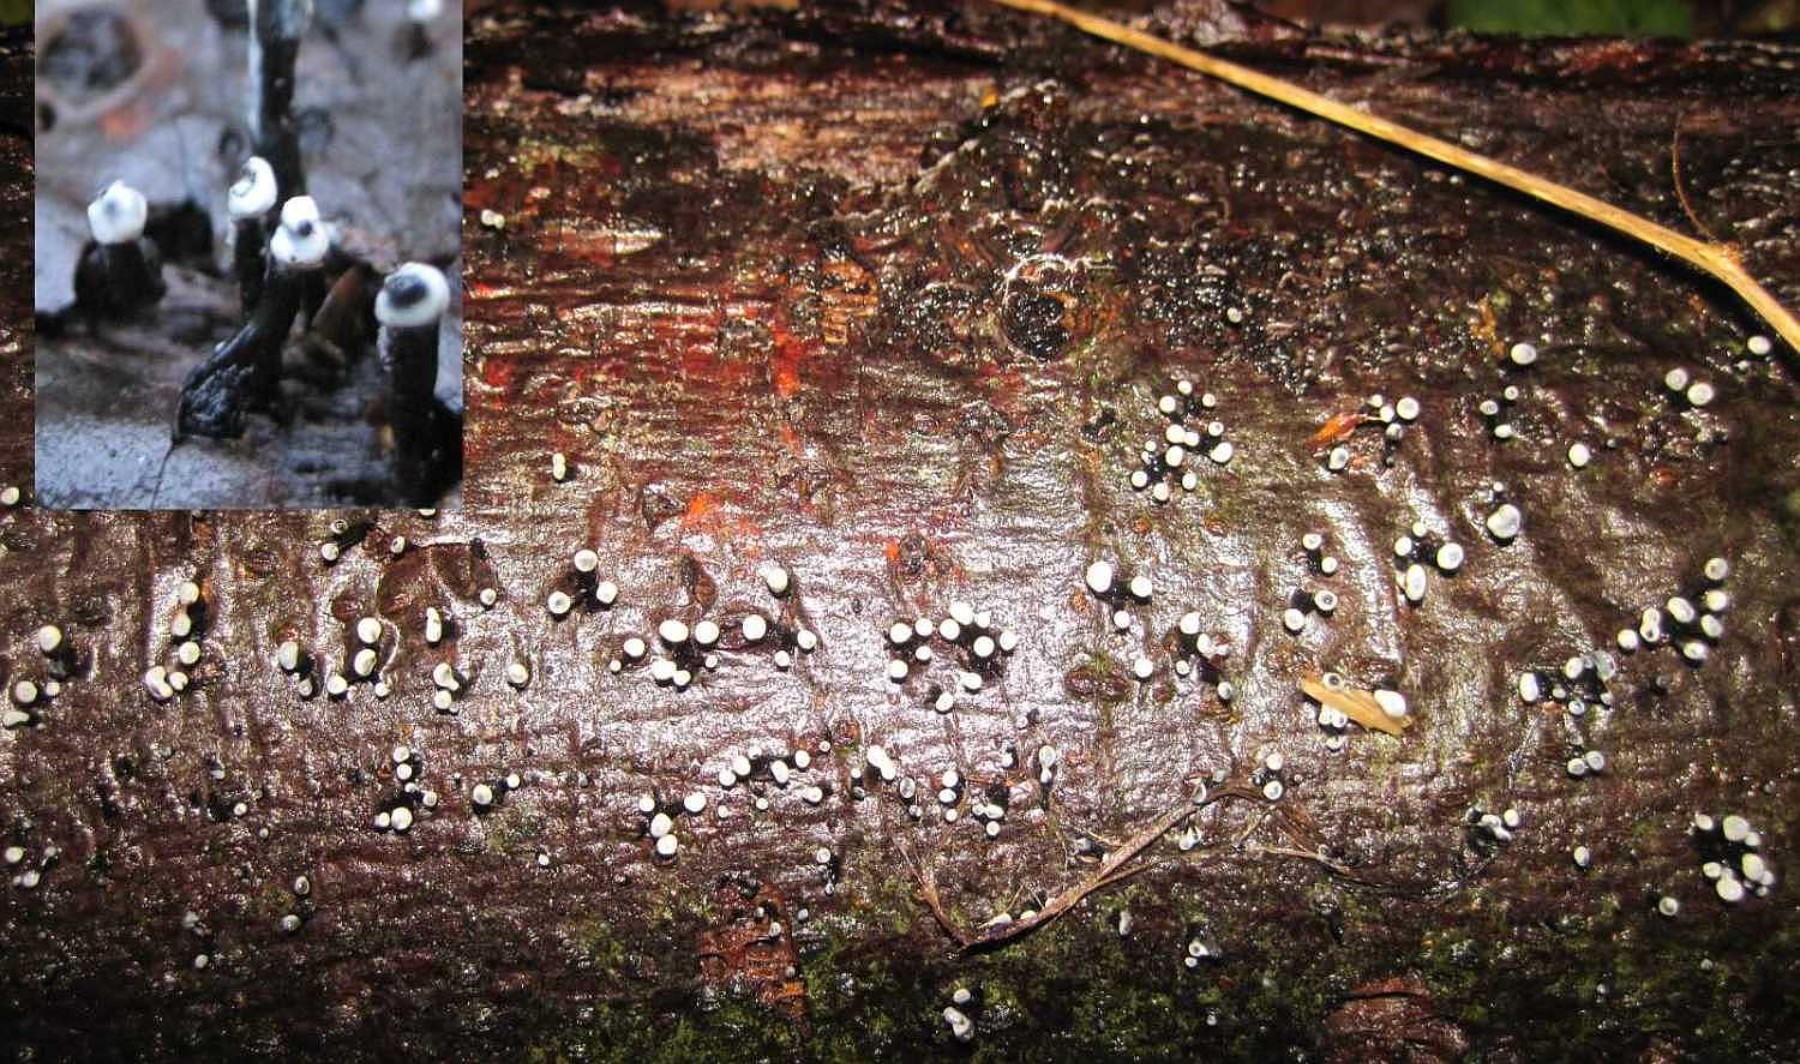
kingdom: Fungi
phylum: Ascomycota
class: Leotiomycetes
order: Helotiales
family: Bulgariaceae
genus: Holwaya
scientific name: Holwaya mucida
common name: lindeskive
